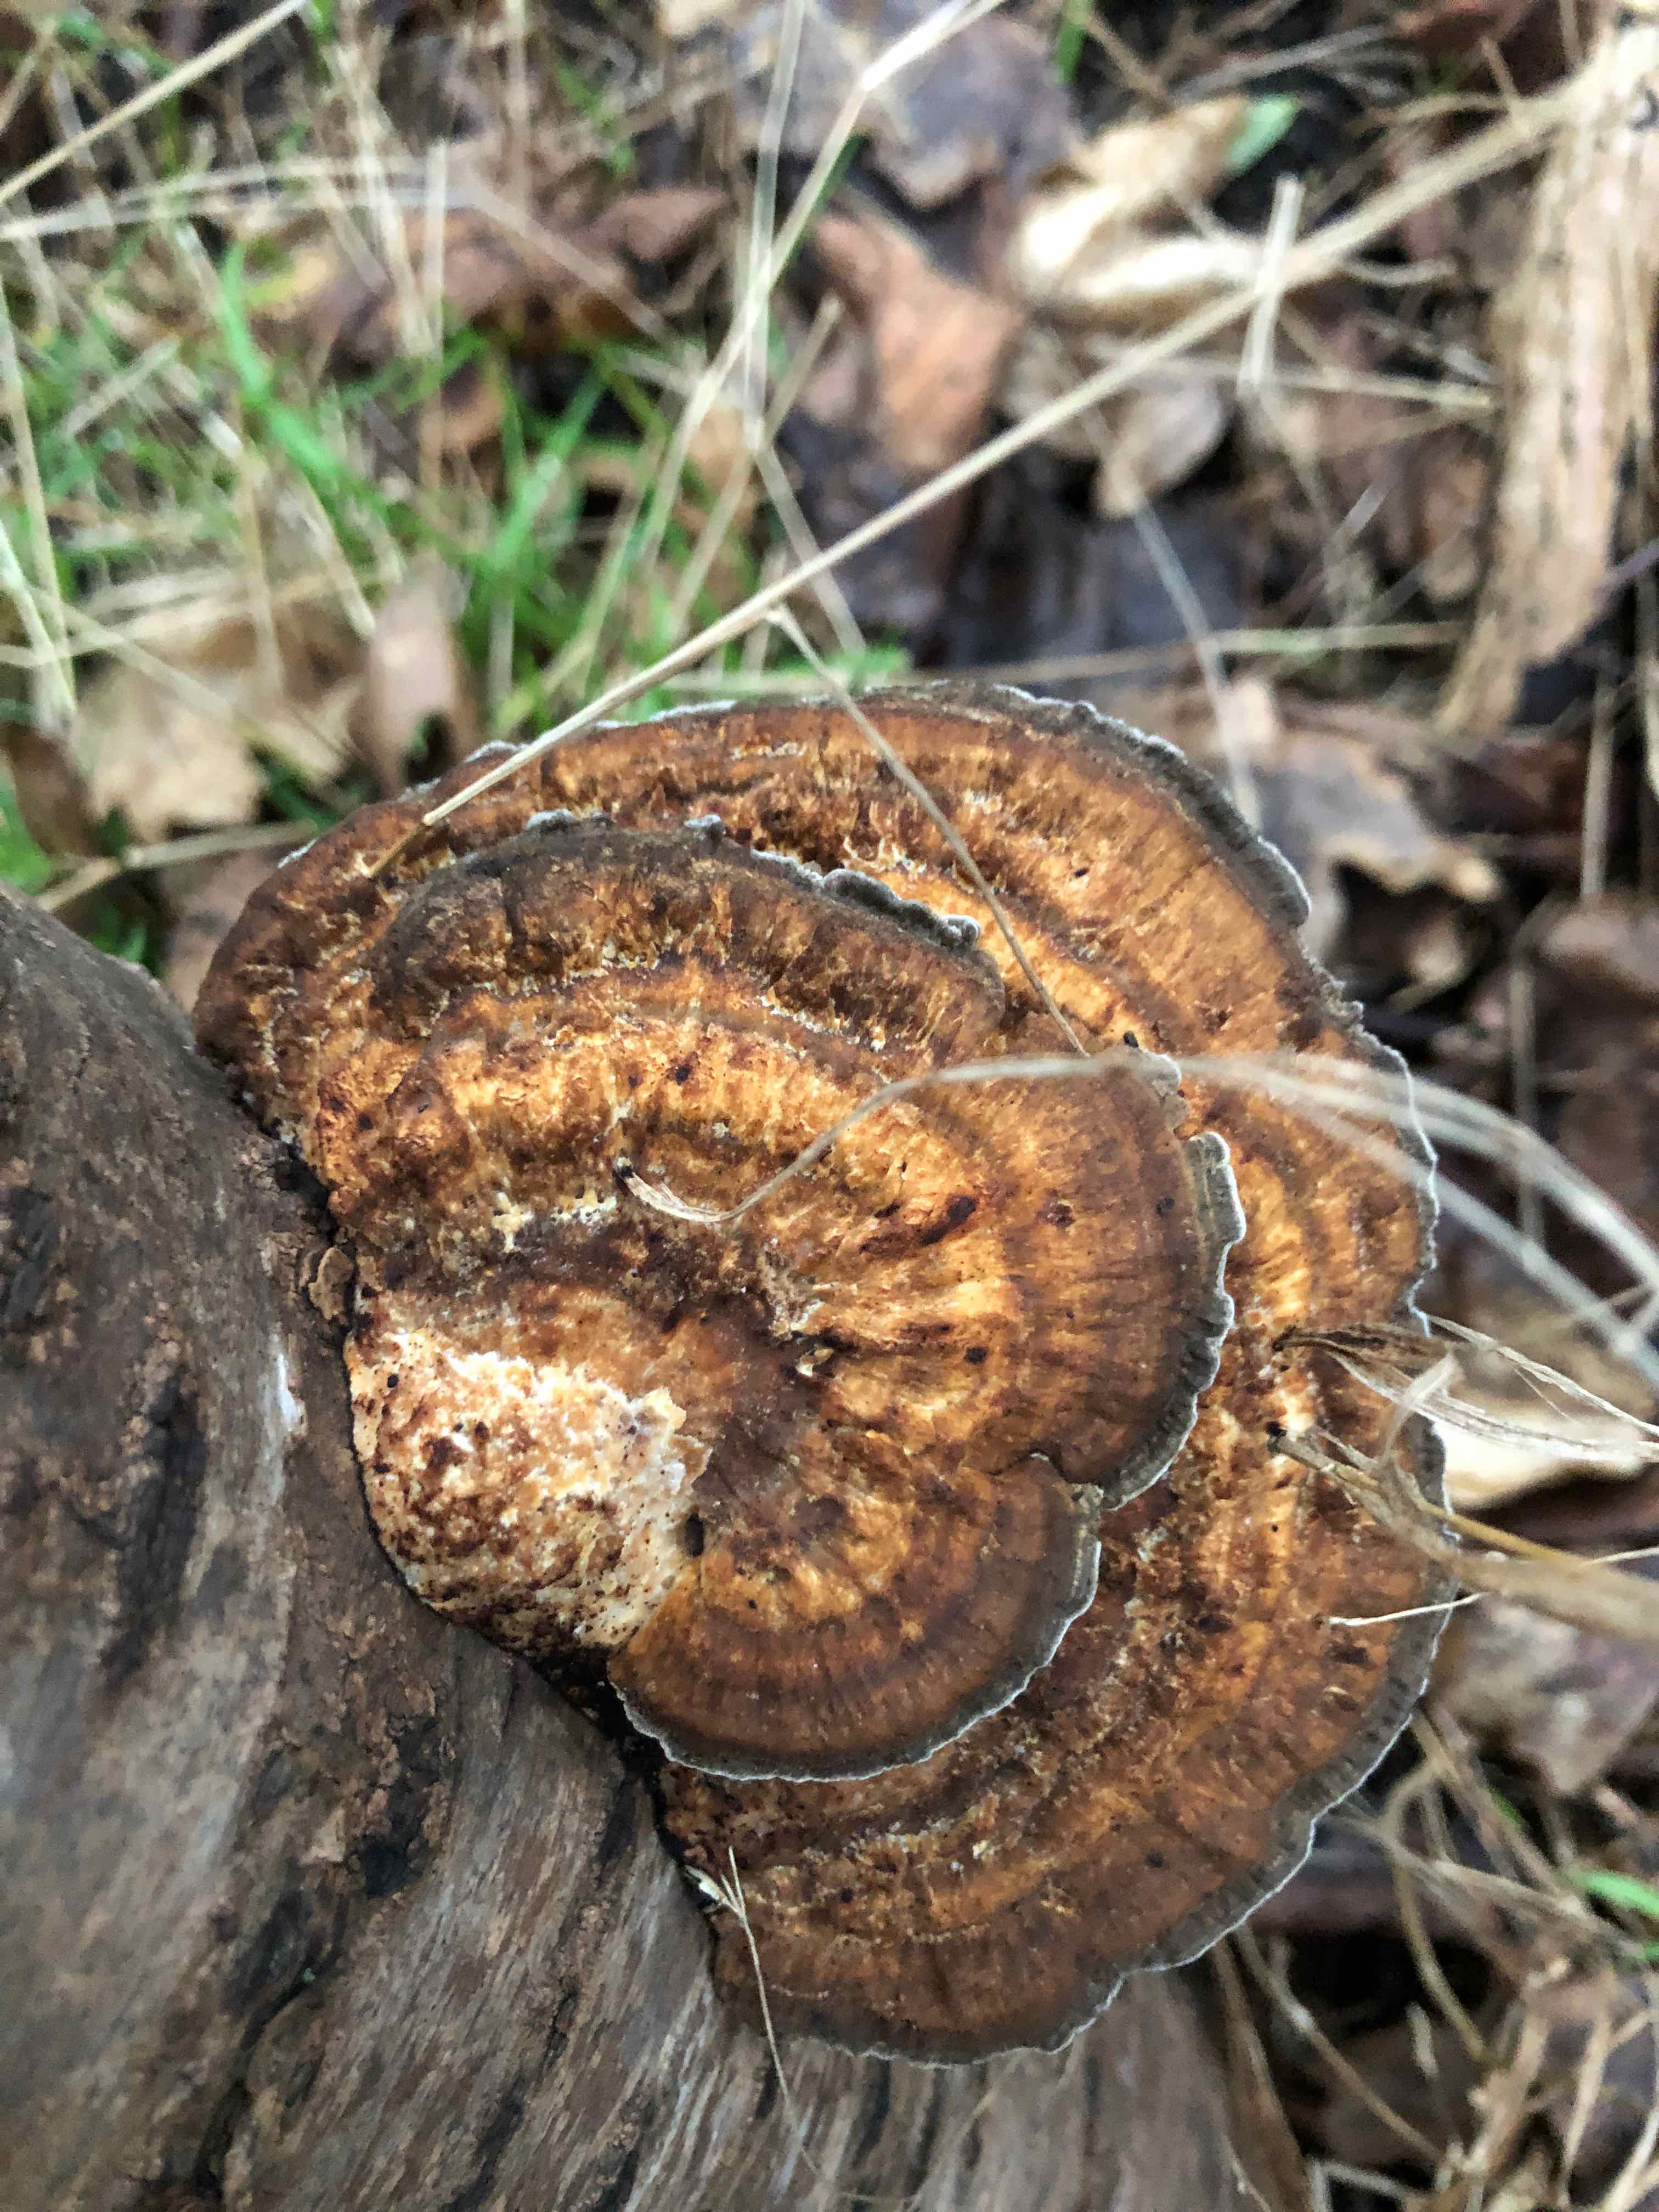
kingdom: Fungi
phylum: Basidiomycota
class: Agaricomycetes
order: Polyporales
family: Polyporaceae
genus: Daedaleopsis
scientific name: Daedaleopsis confragosa
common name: rødmende læderporesvamp
